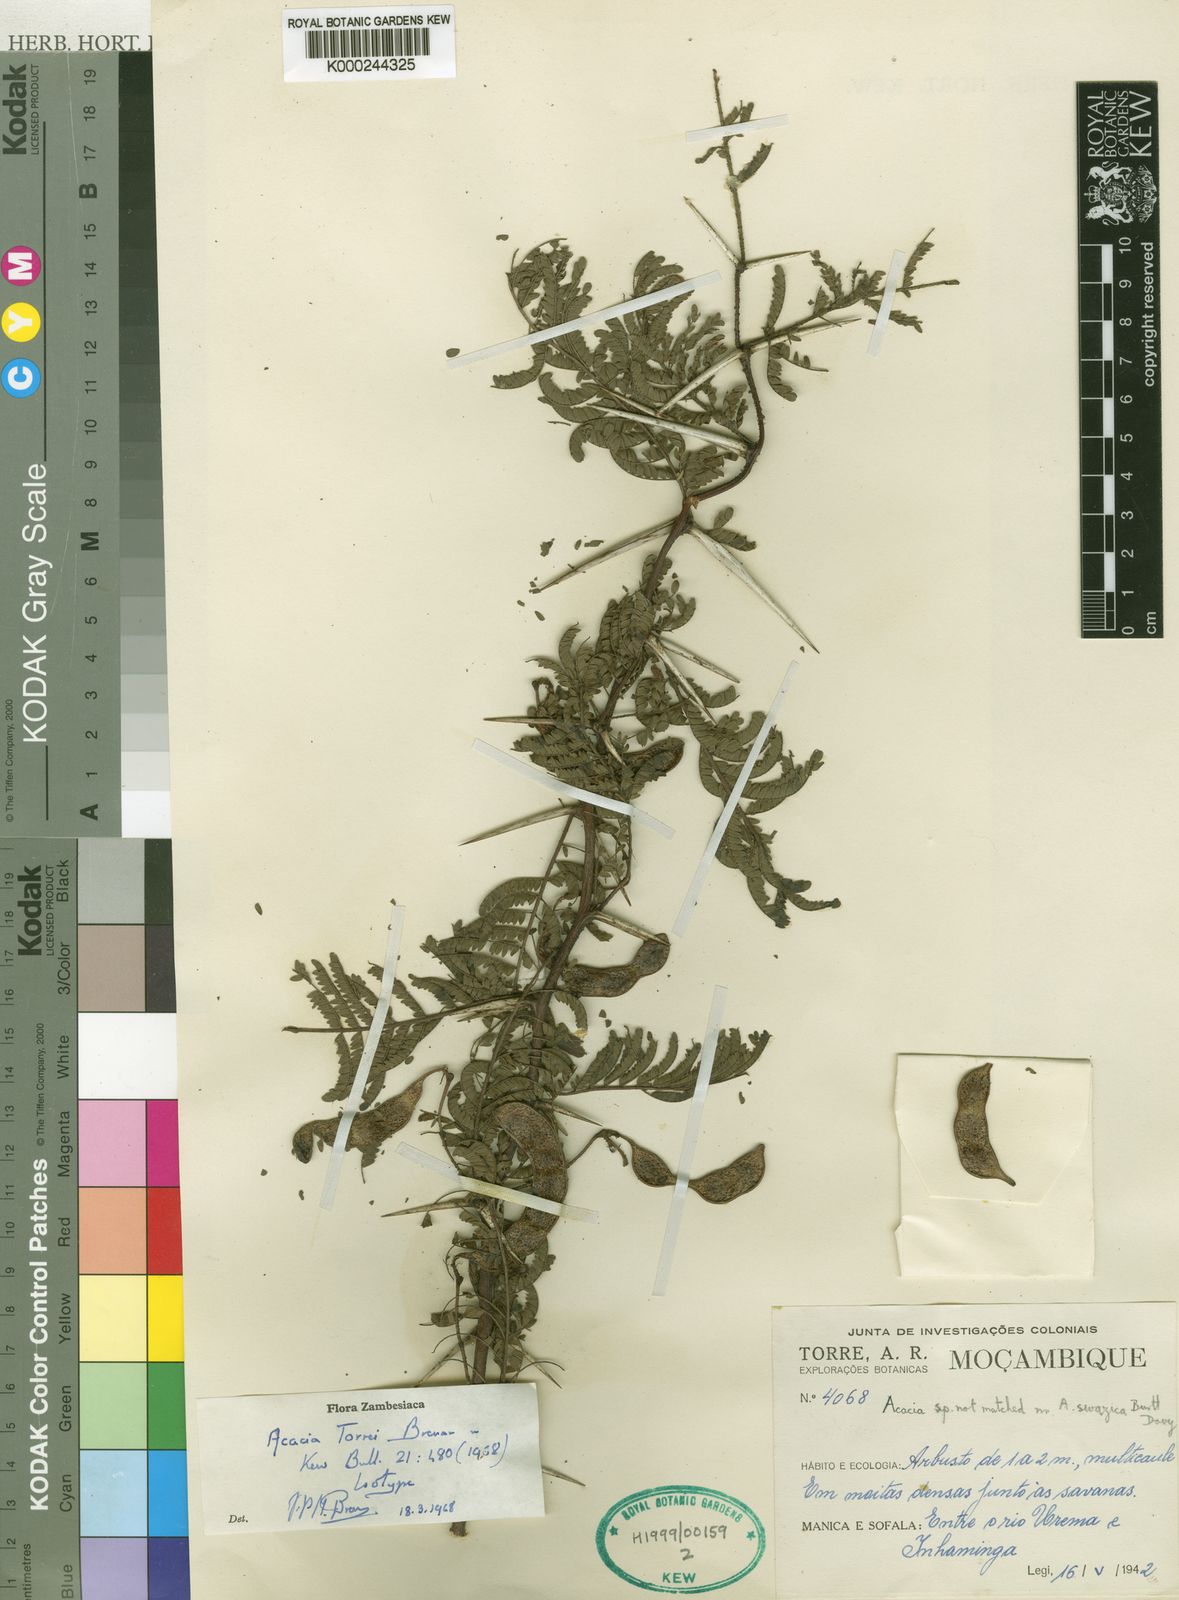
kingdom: Plantae
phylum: Tracheophyta
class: Magnoliopsida
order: Fabales
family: Fabaceae
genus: Vachellia
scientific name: Vachellia torrei
